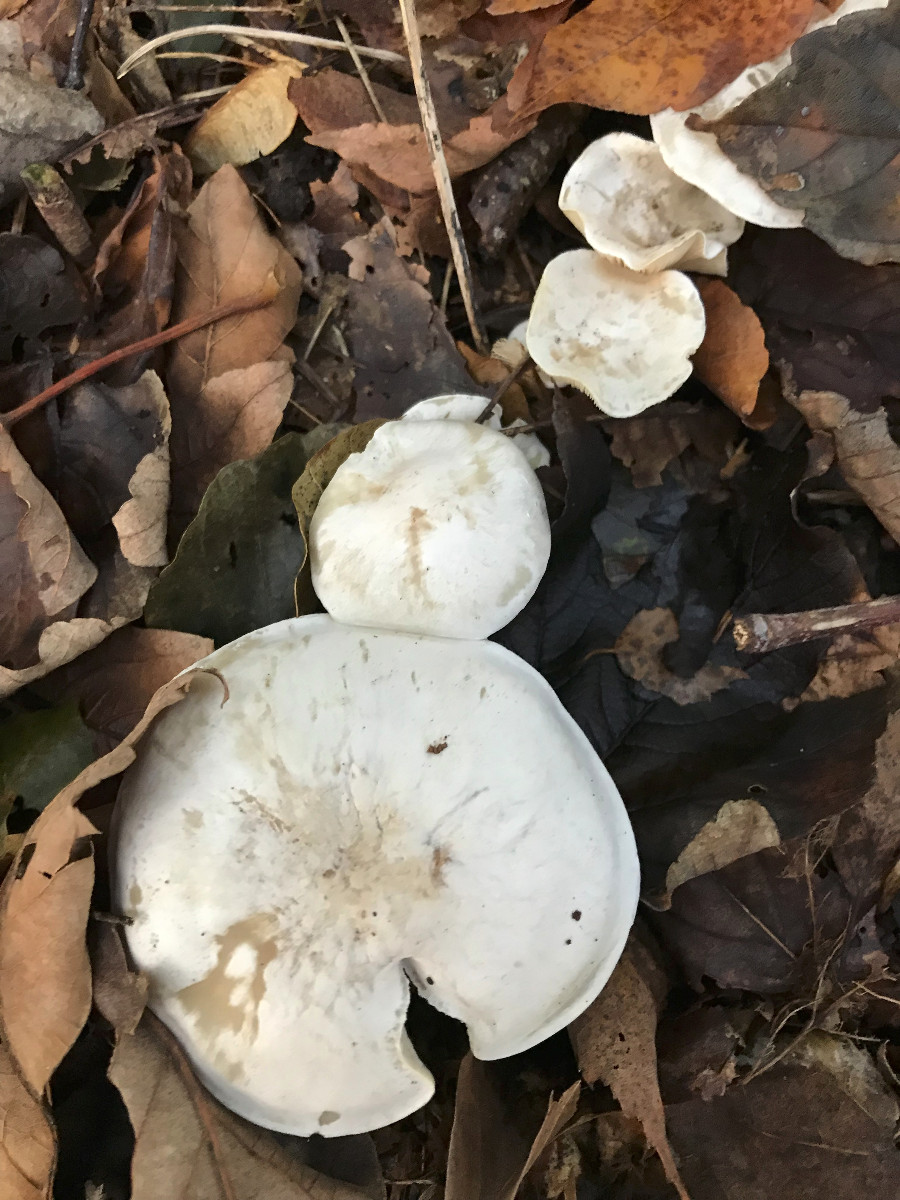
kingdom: Fungi
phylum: Basidiomycota
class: Agaricomycetes
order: Agaricales
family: Tricholomataceae
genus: Clitocybe
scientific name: Clitocybe phyllophila
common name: løv-tragthat
